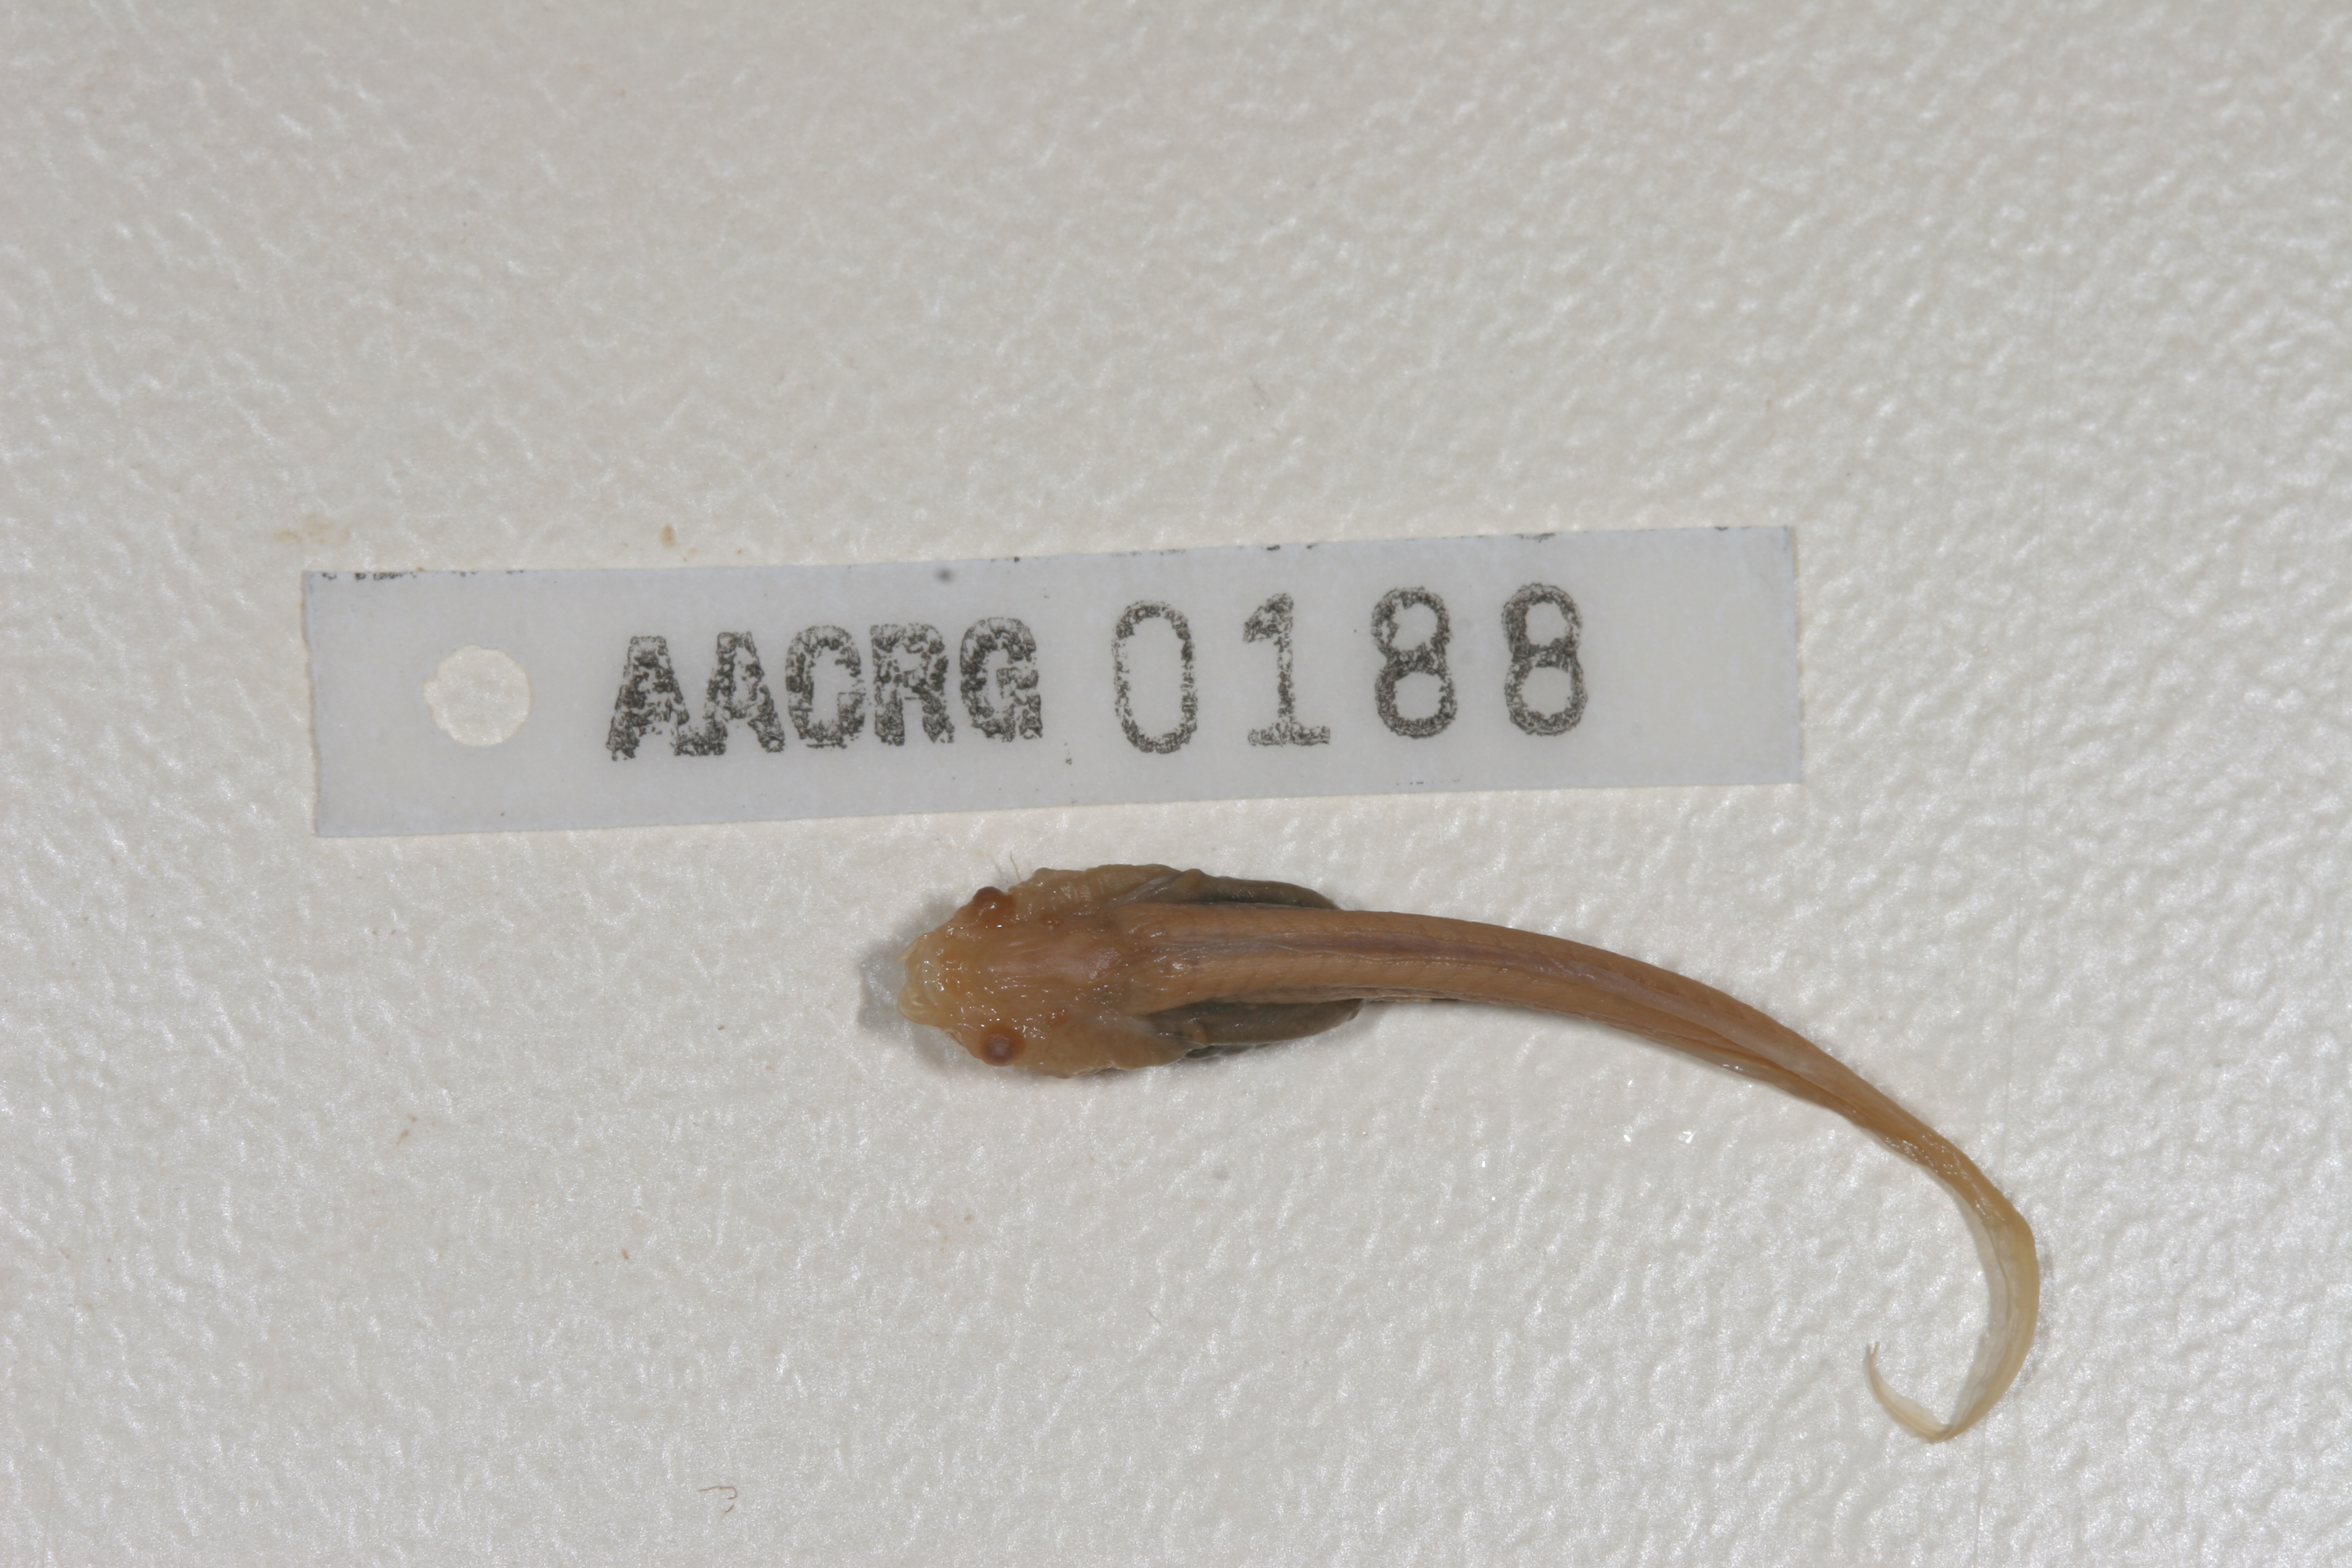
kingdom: Animalia
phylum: Chordata
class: Amphibia
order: Anura
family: Pipidae
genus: Xenopus
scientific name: Xenopus laevis
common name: African clawed frog
